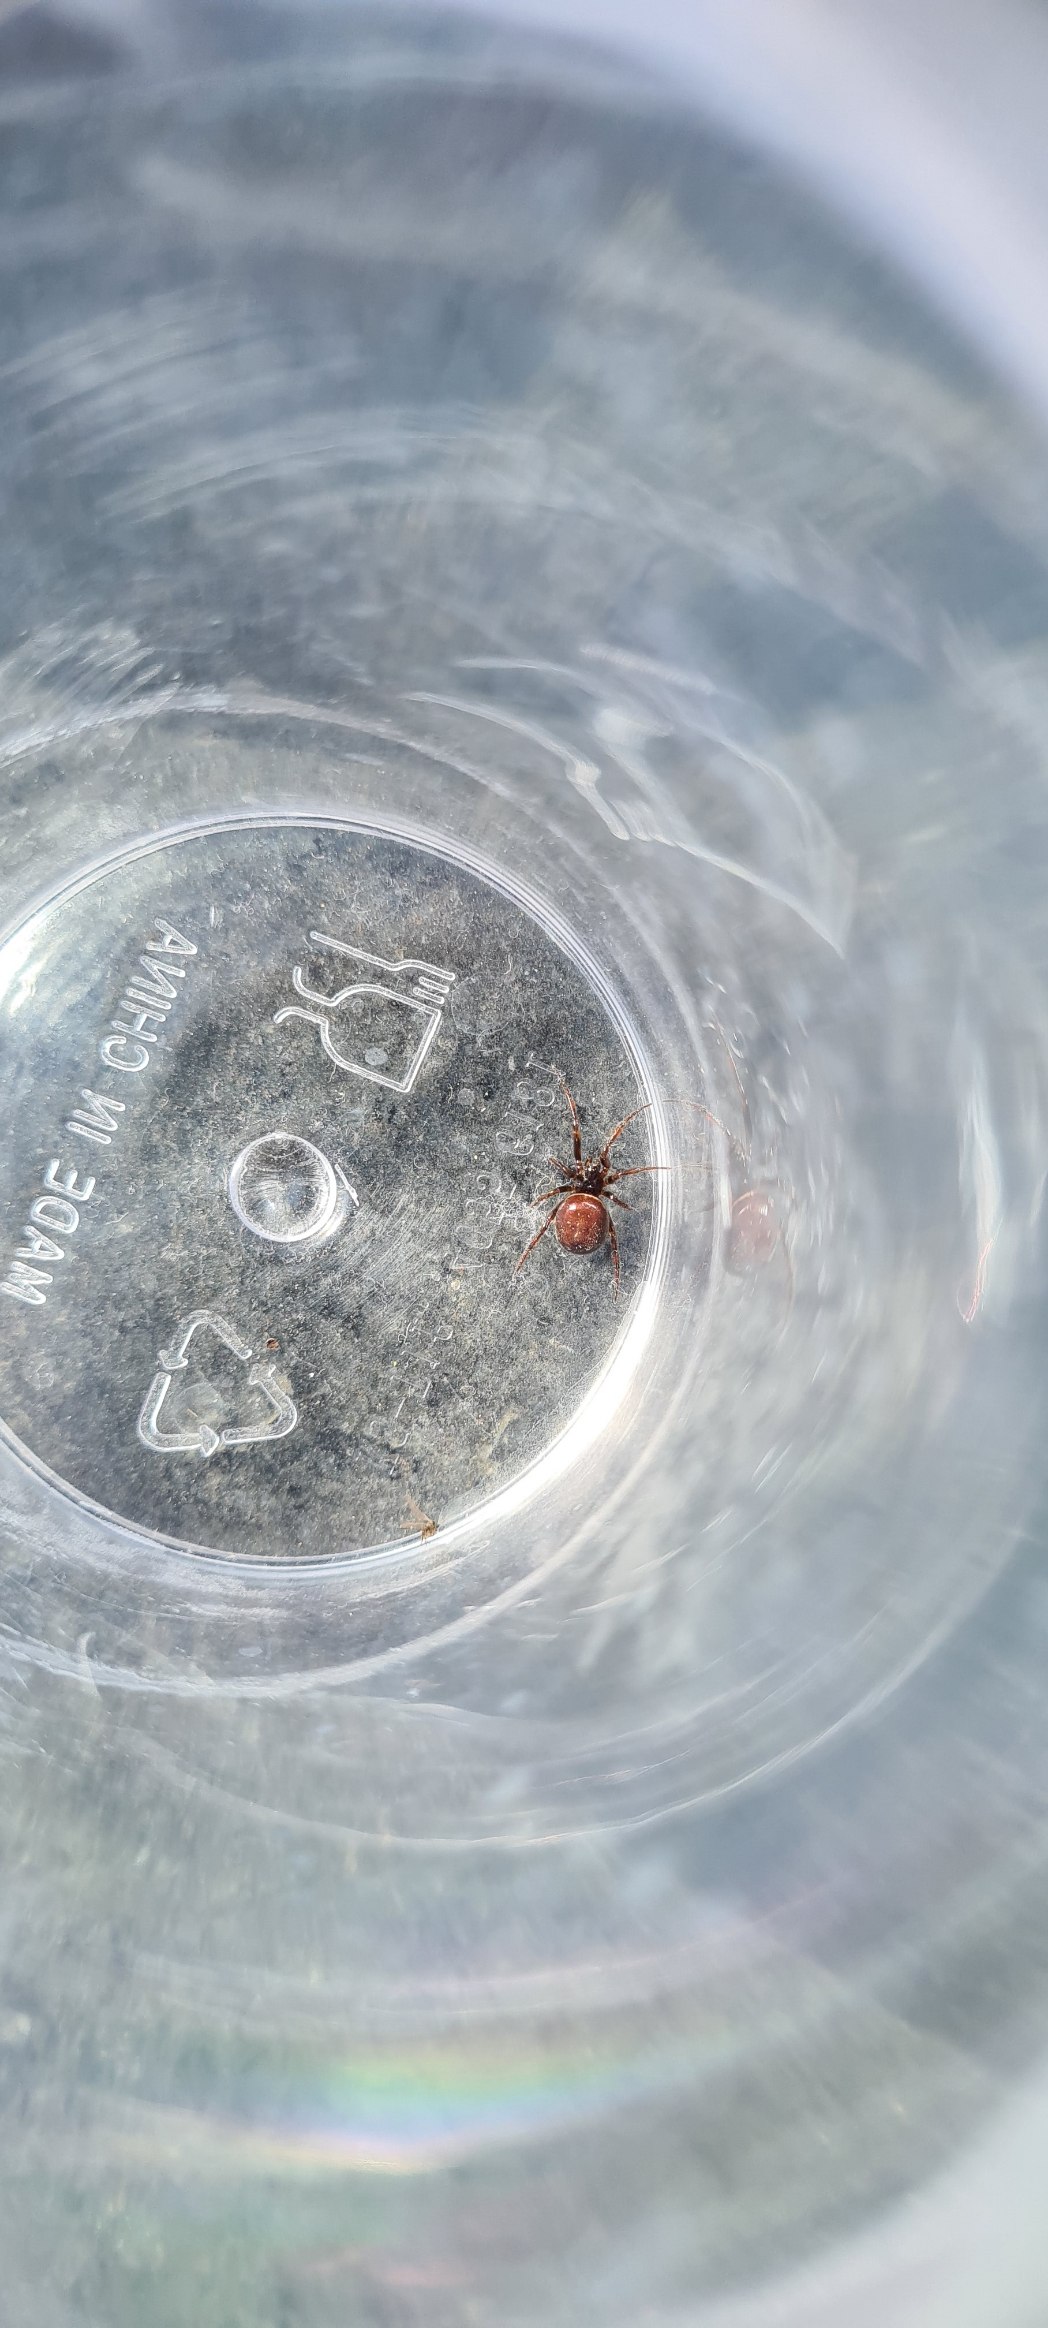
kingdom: Animalia
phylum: Arthropoda
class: Arachnida
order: Araneae
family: Theridiidae
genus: Steatoda
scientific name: Steatoda bipunctata
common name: Fedtedderkop
